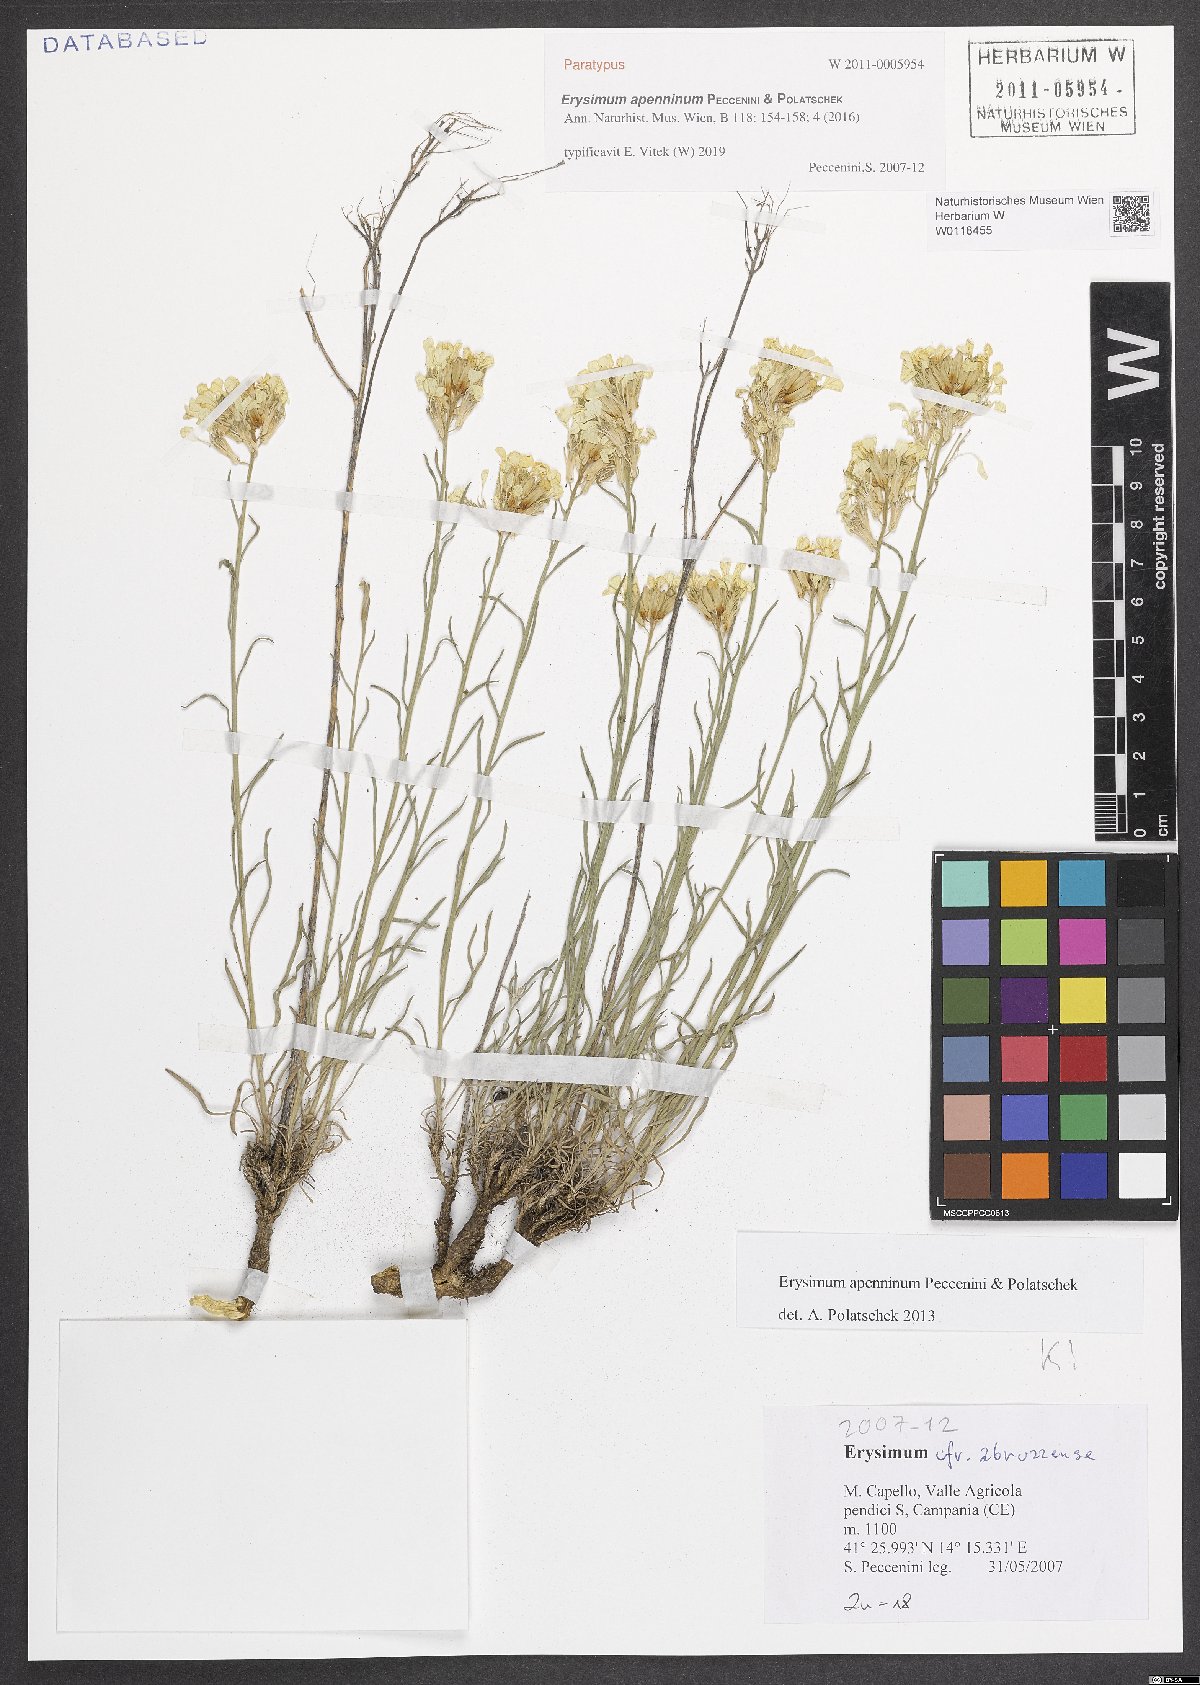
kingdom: Plantae
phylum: Tracheophyta
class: Magnoliopsida
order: Brassicales
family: Brassicaceae
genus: Erysimum
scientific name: Erysimum apenninum
